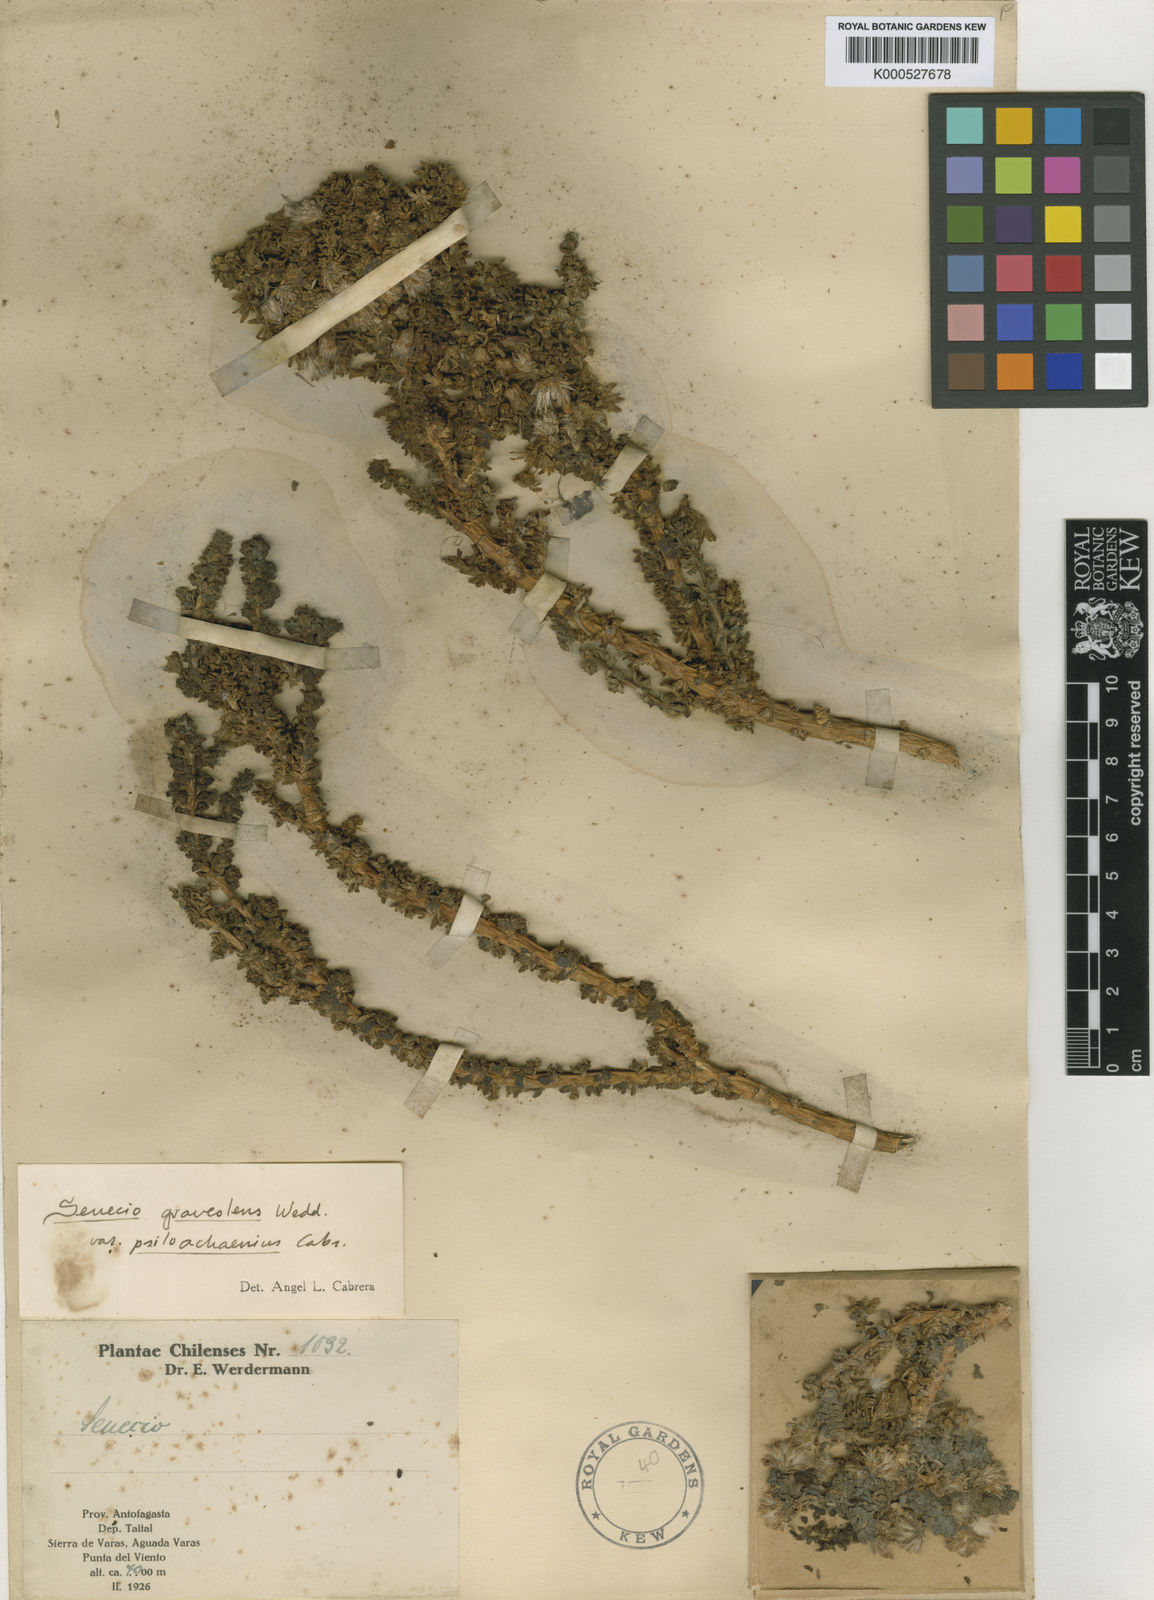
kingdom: Plantae
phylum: Tracheophyta
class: Magnoliopsida
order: Asterales
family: Asteraceae
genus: Senecio
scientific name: Senecio nutans
